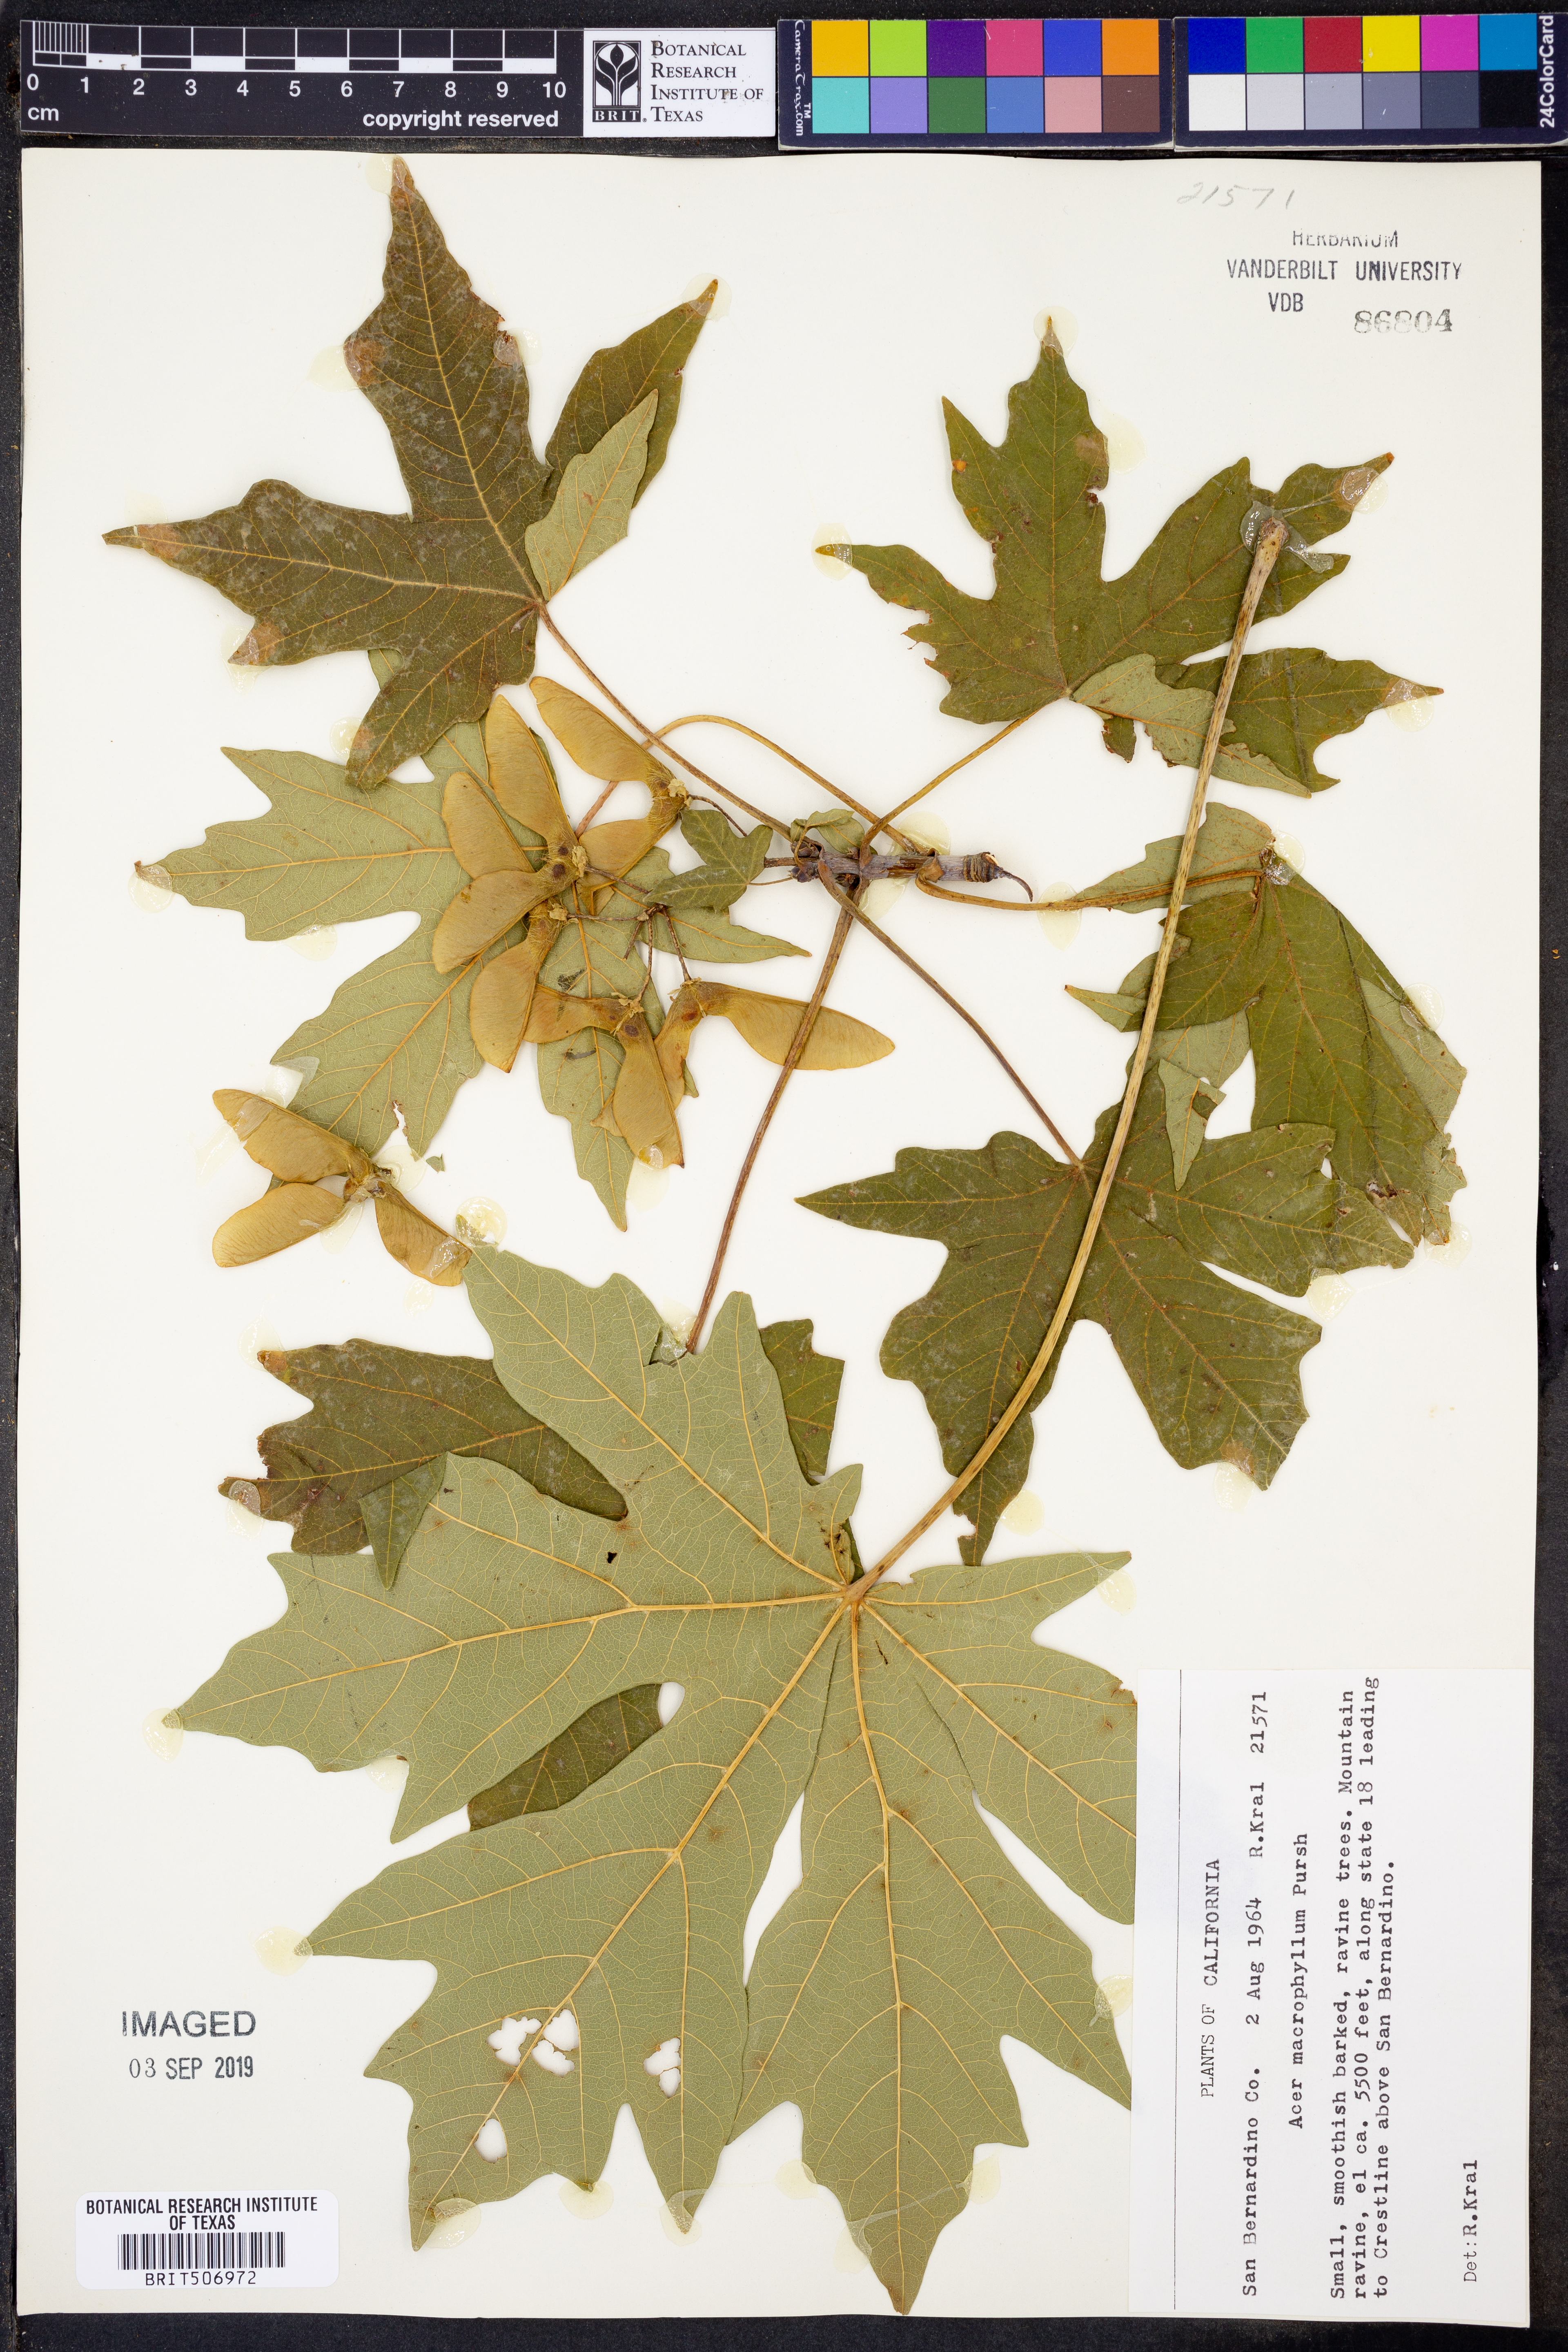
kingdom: Plantae
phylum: Tracheophyta
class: Magnoliopsida
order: Sapindales
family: Sapindaceae
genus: Acer
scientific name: Acer macrophyllum
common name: Oregon maple
